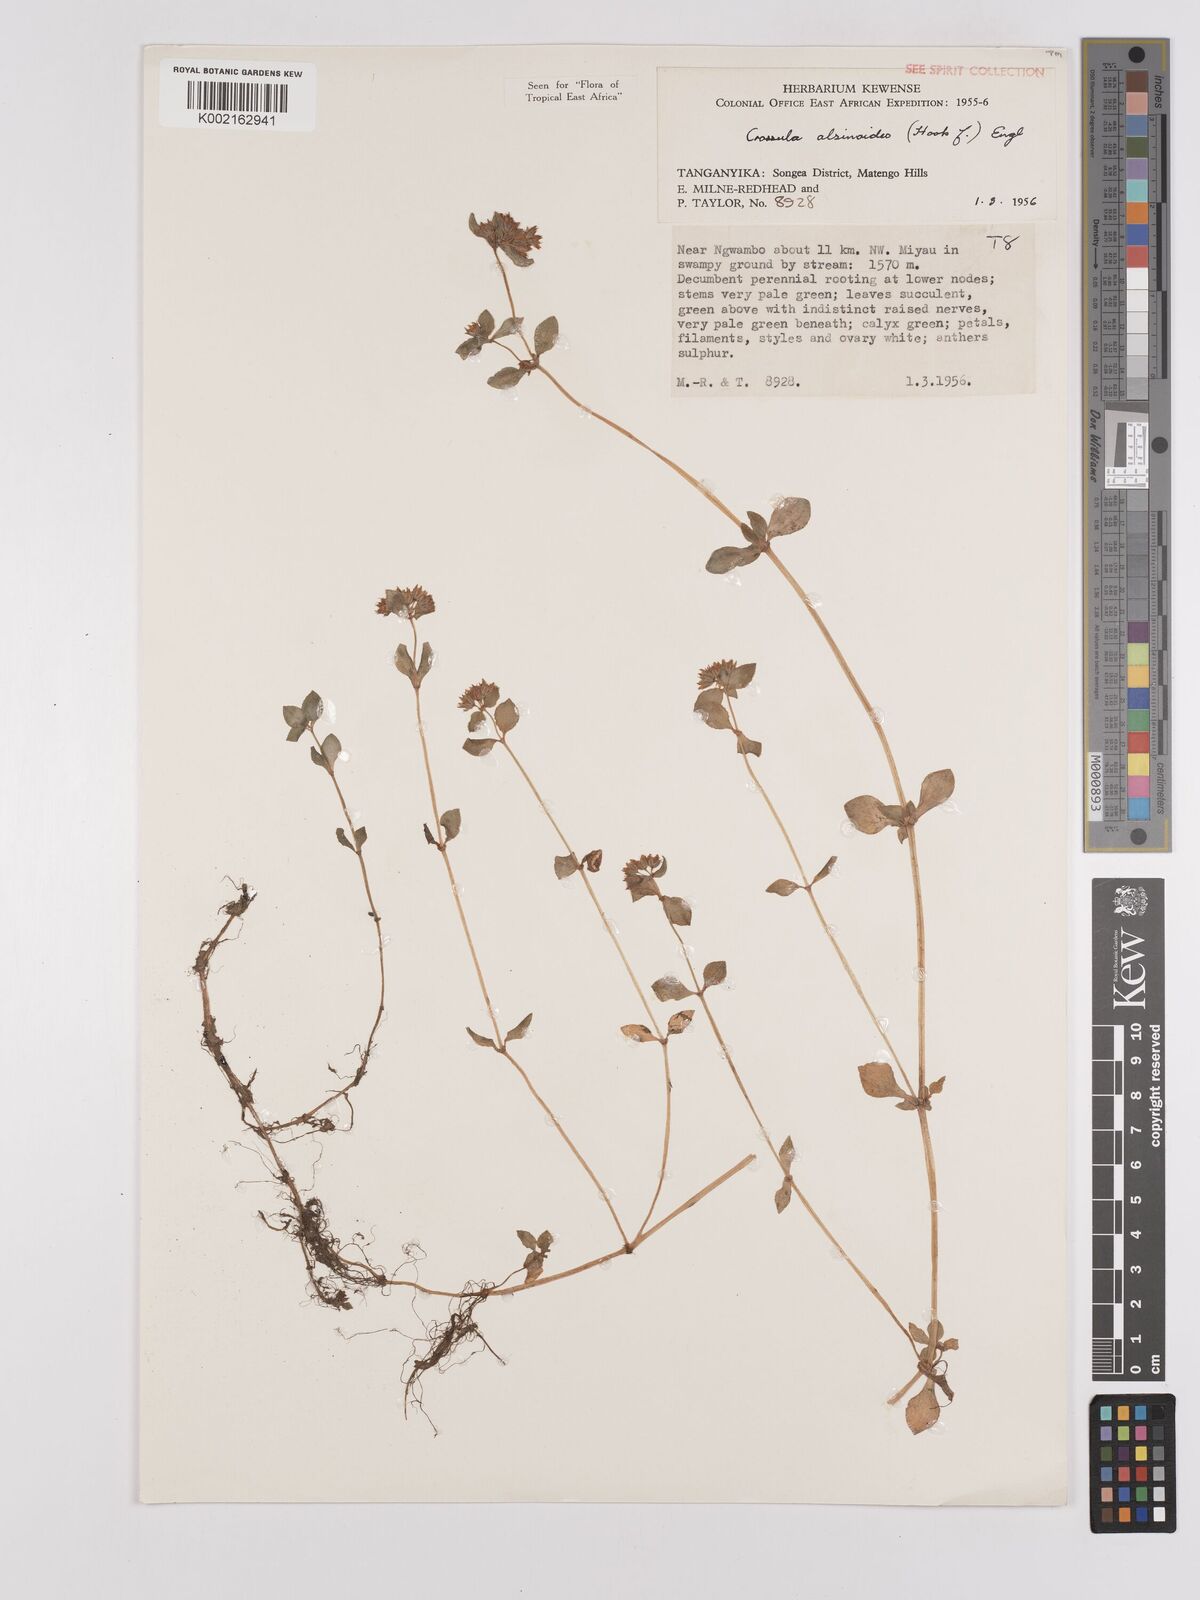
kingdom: Plantae
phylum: Tracheophyta
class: Magnoliopsida
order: Saxifragales
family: Crassulaceae
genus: Crassula
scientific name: Crassula alsinoides
